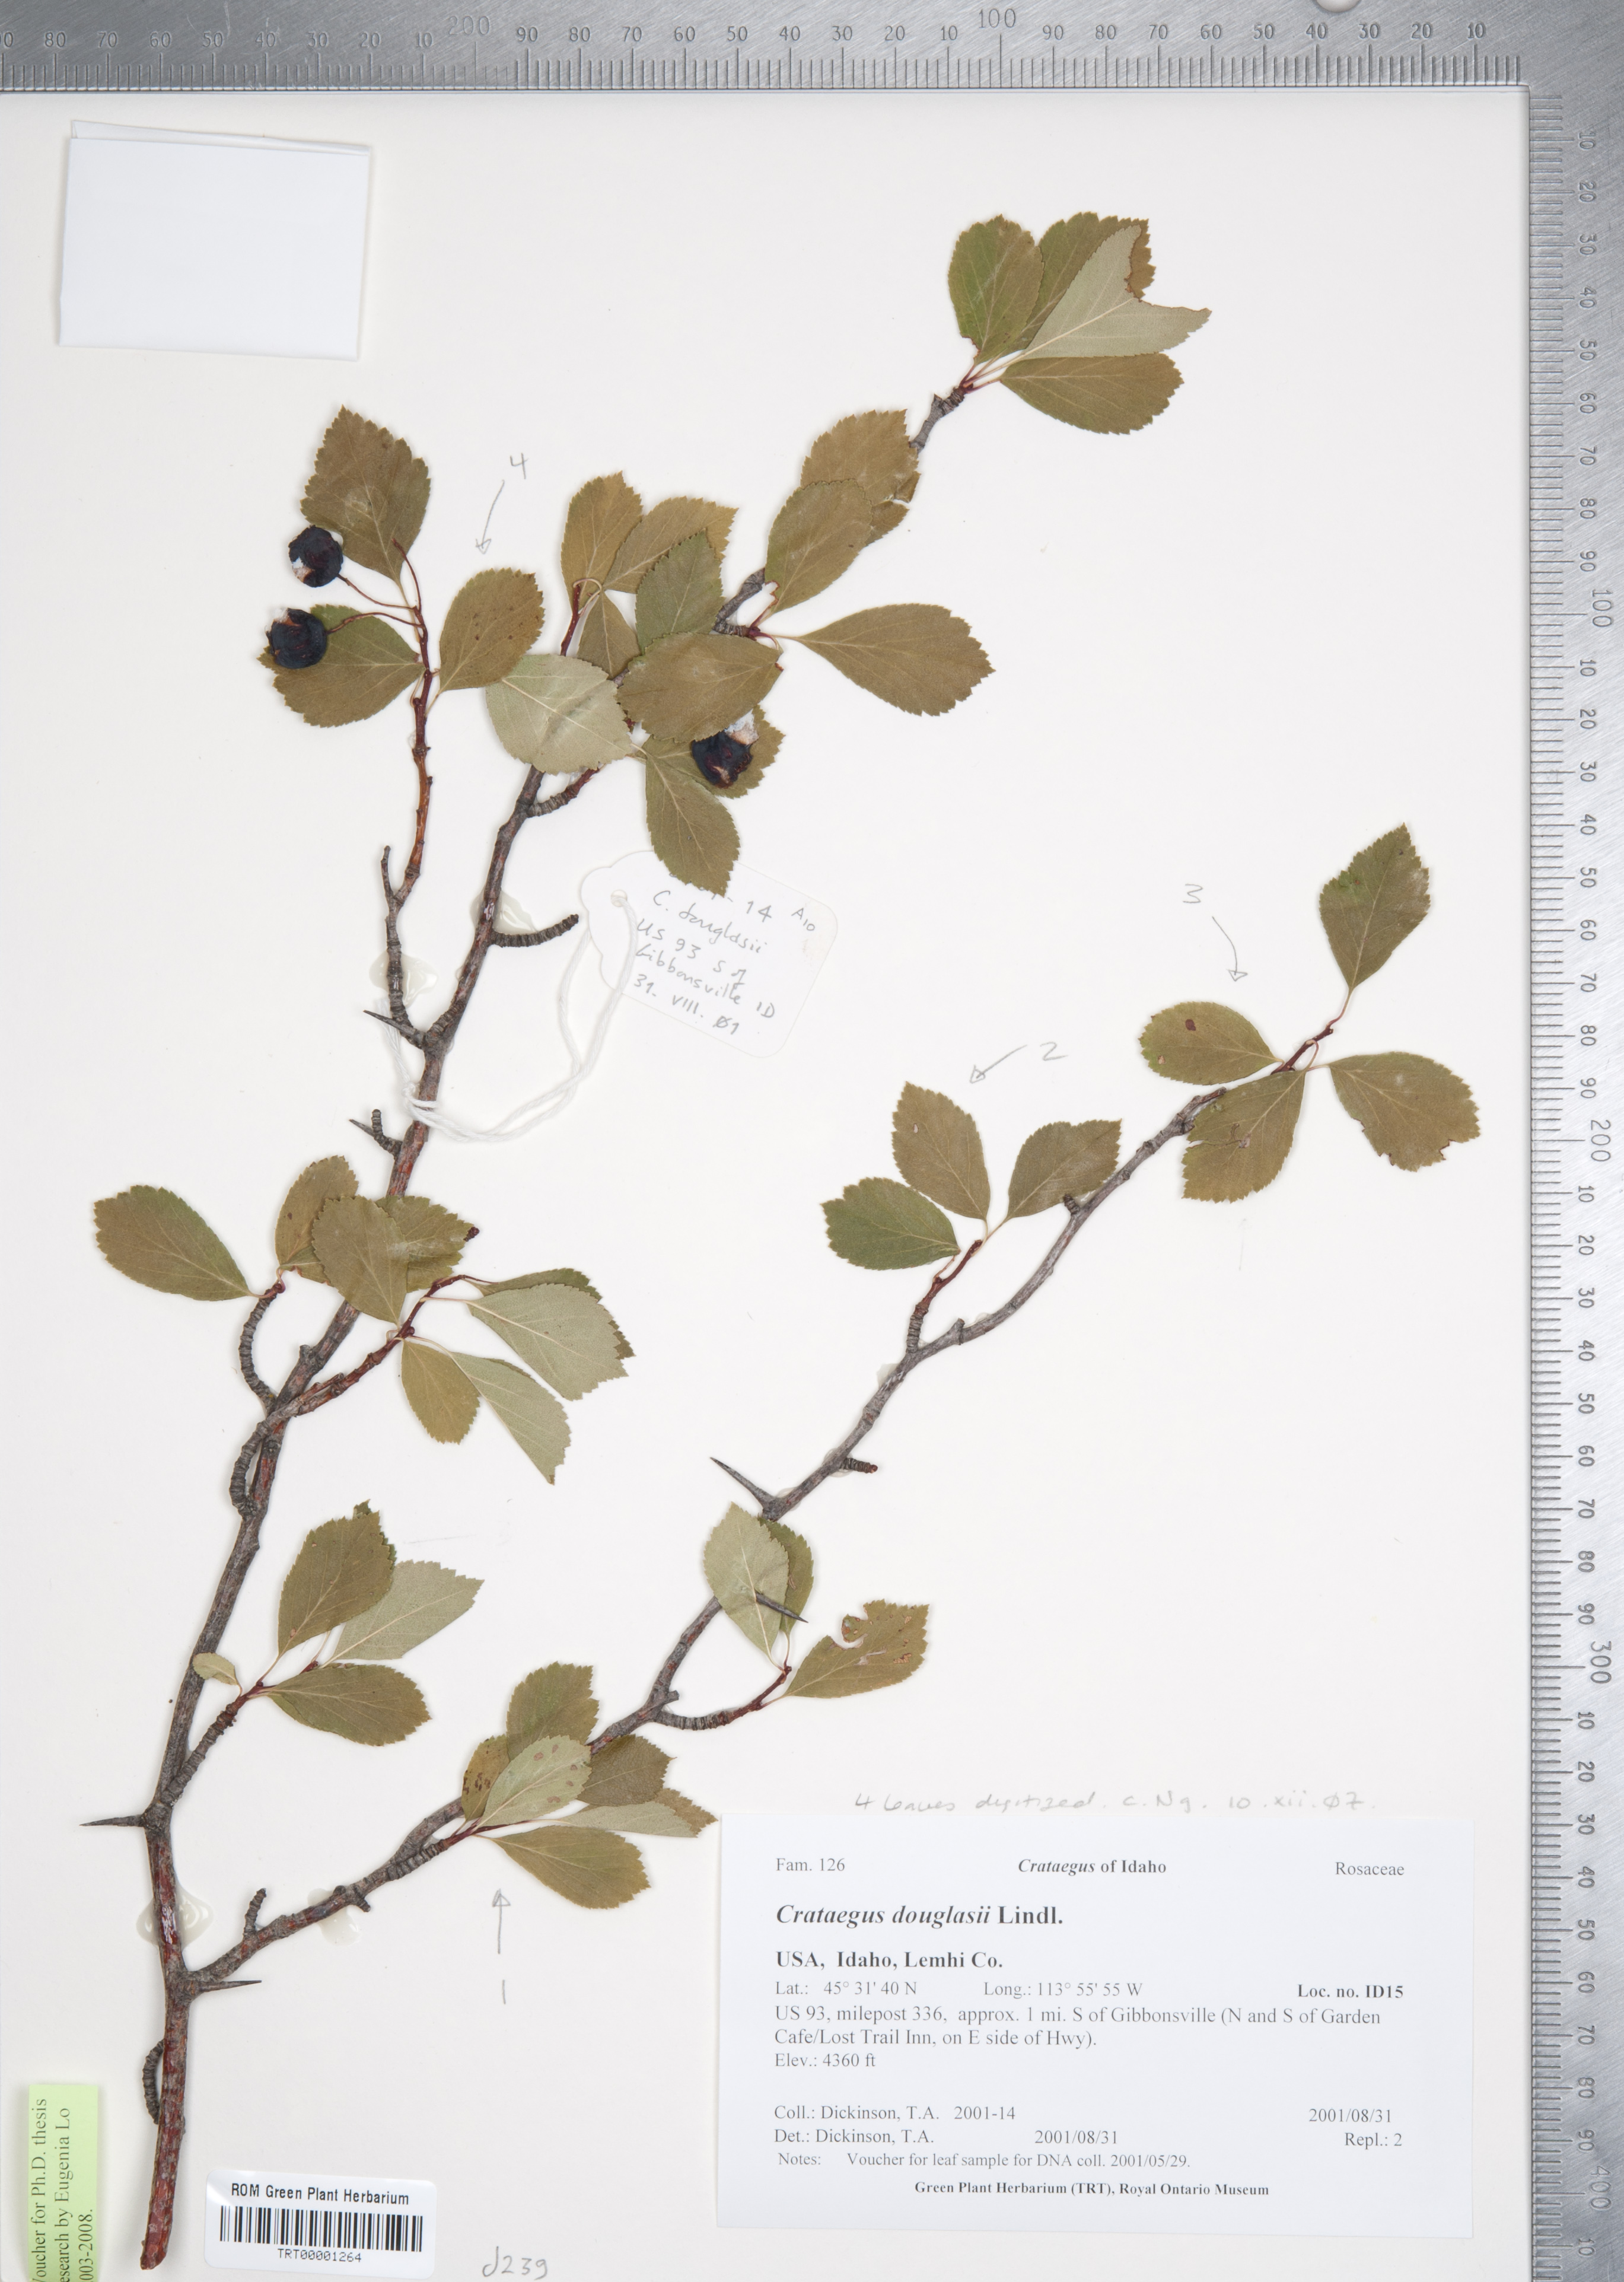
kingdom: Plantae
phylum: Tracheophyta
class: Magnoliopsida
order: Rosales
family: Rosaceae
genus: Crataegus
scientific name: Crataegus douglasii
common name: Black hawthorn
